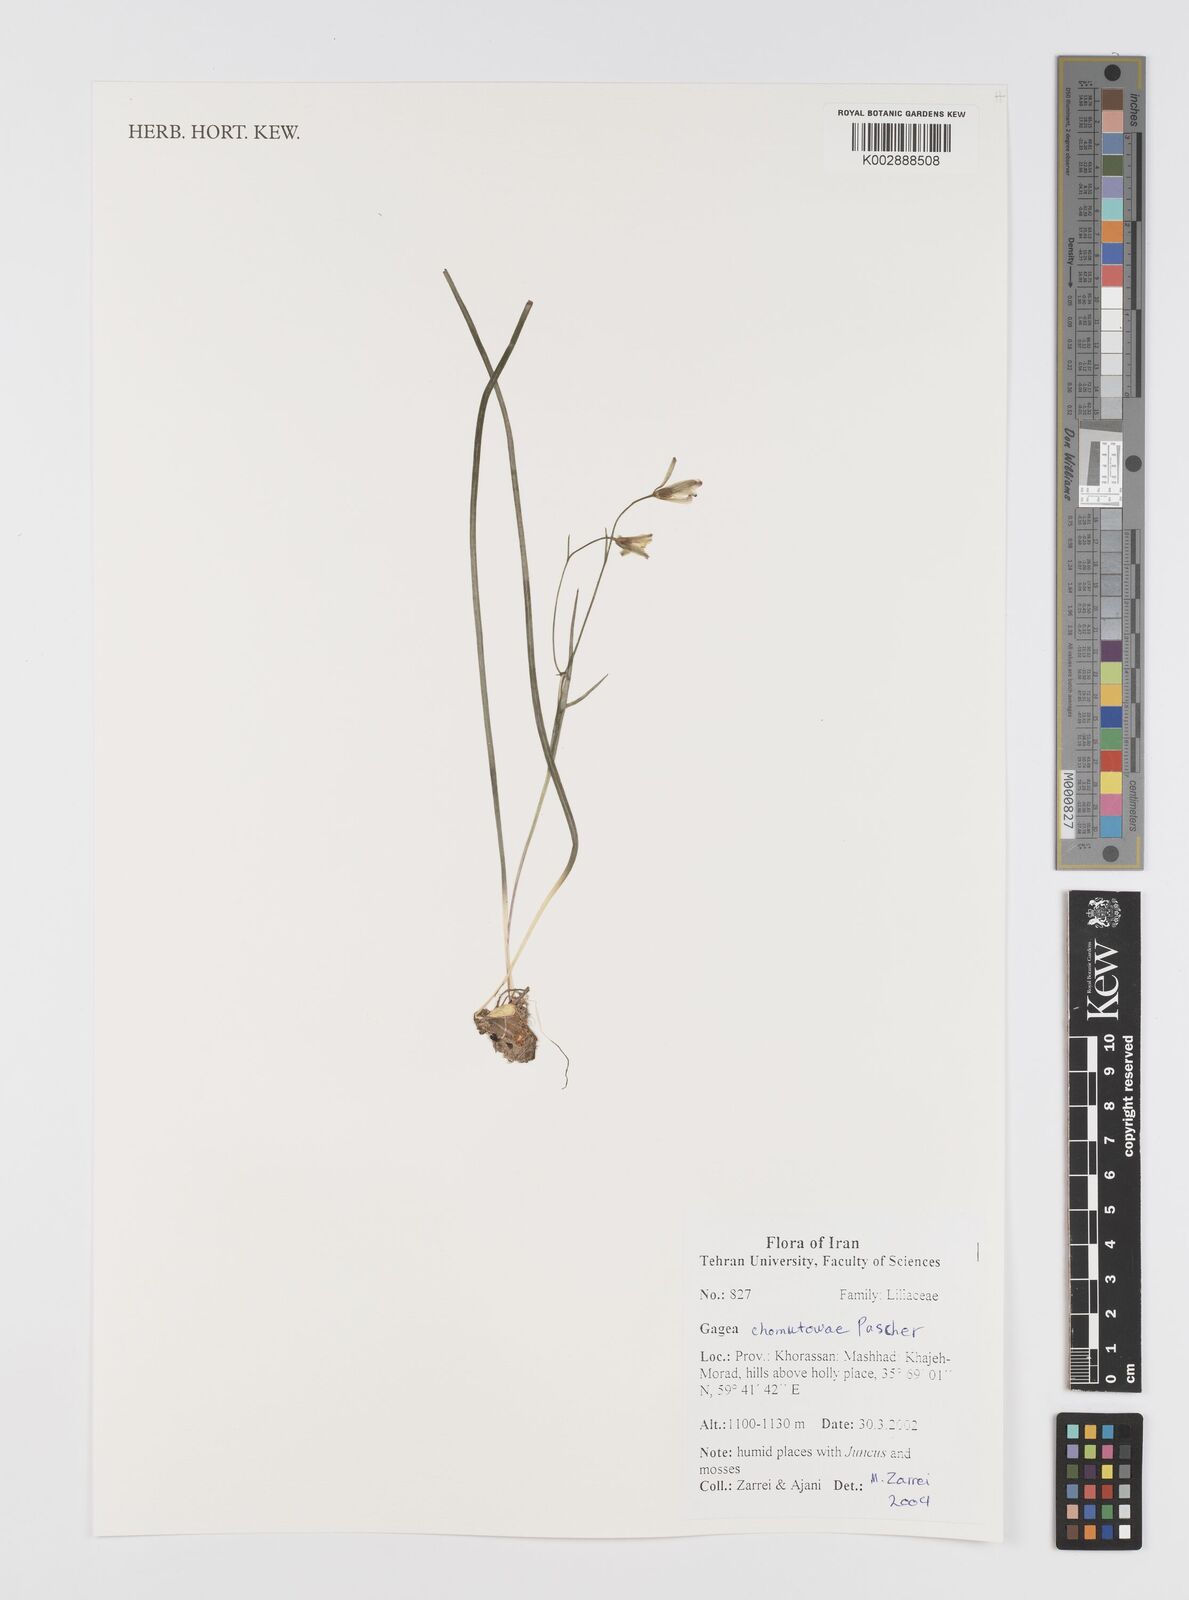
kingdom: Plantae
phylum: Tracheophyta
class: Liliopsida
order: Liliales
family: Liliaceae
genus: Gagea
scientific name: Gagea chomutovae
